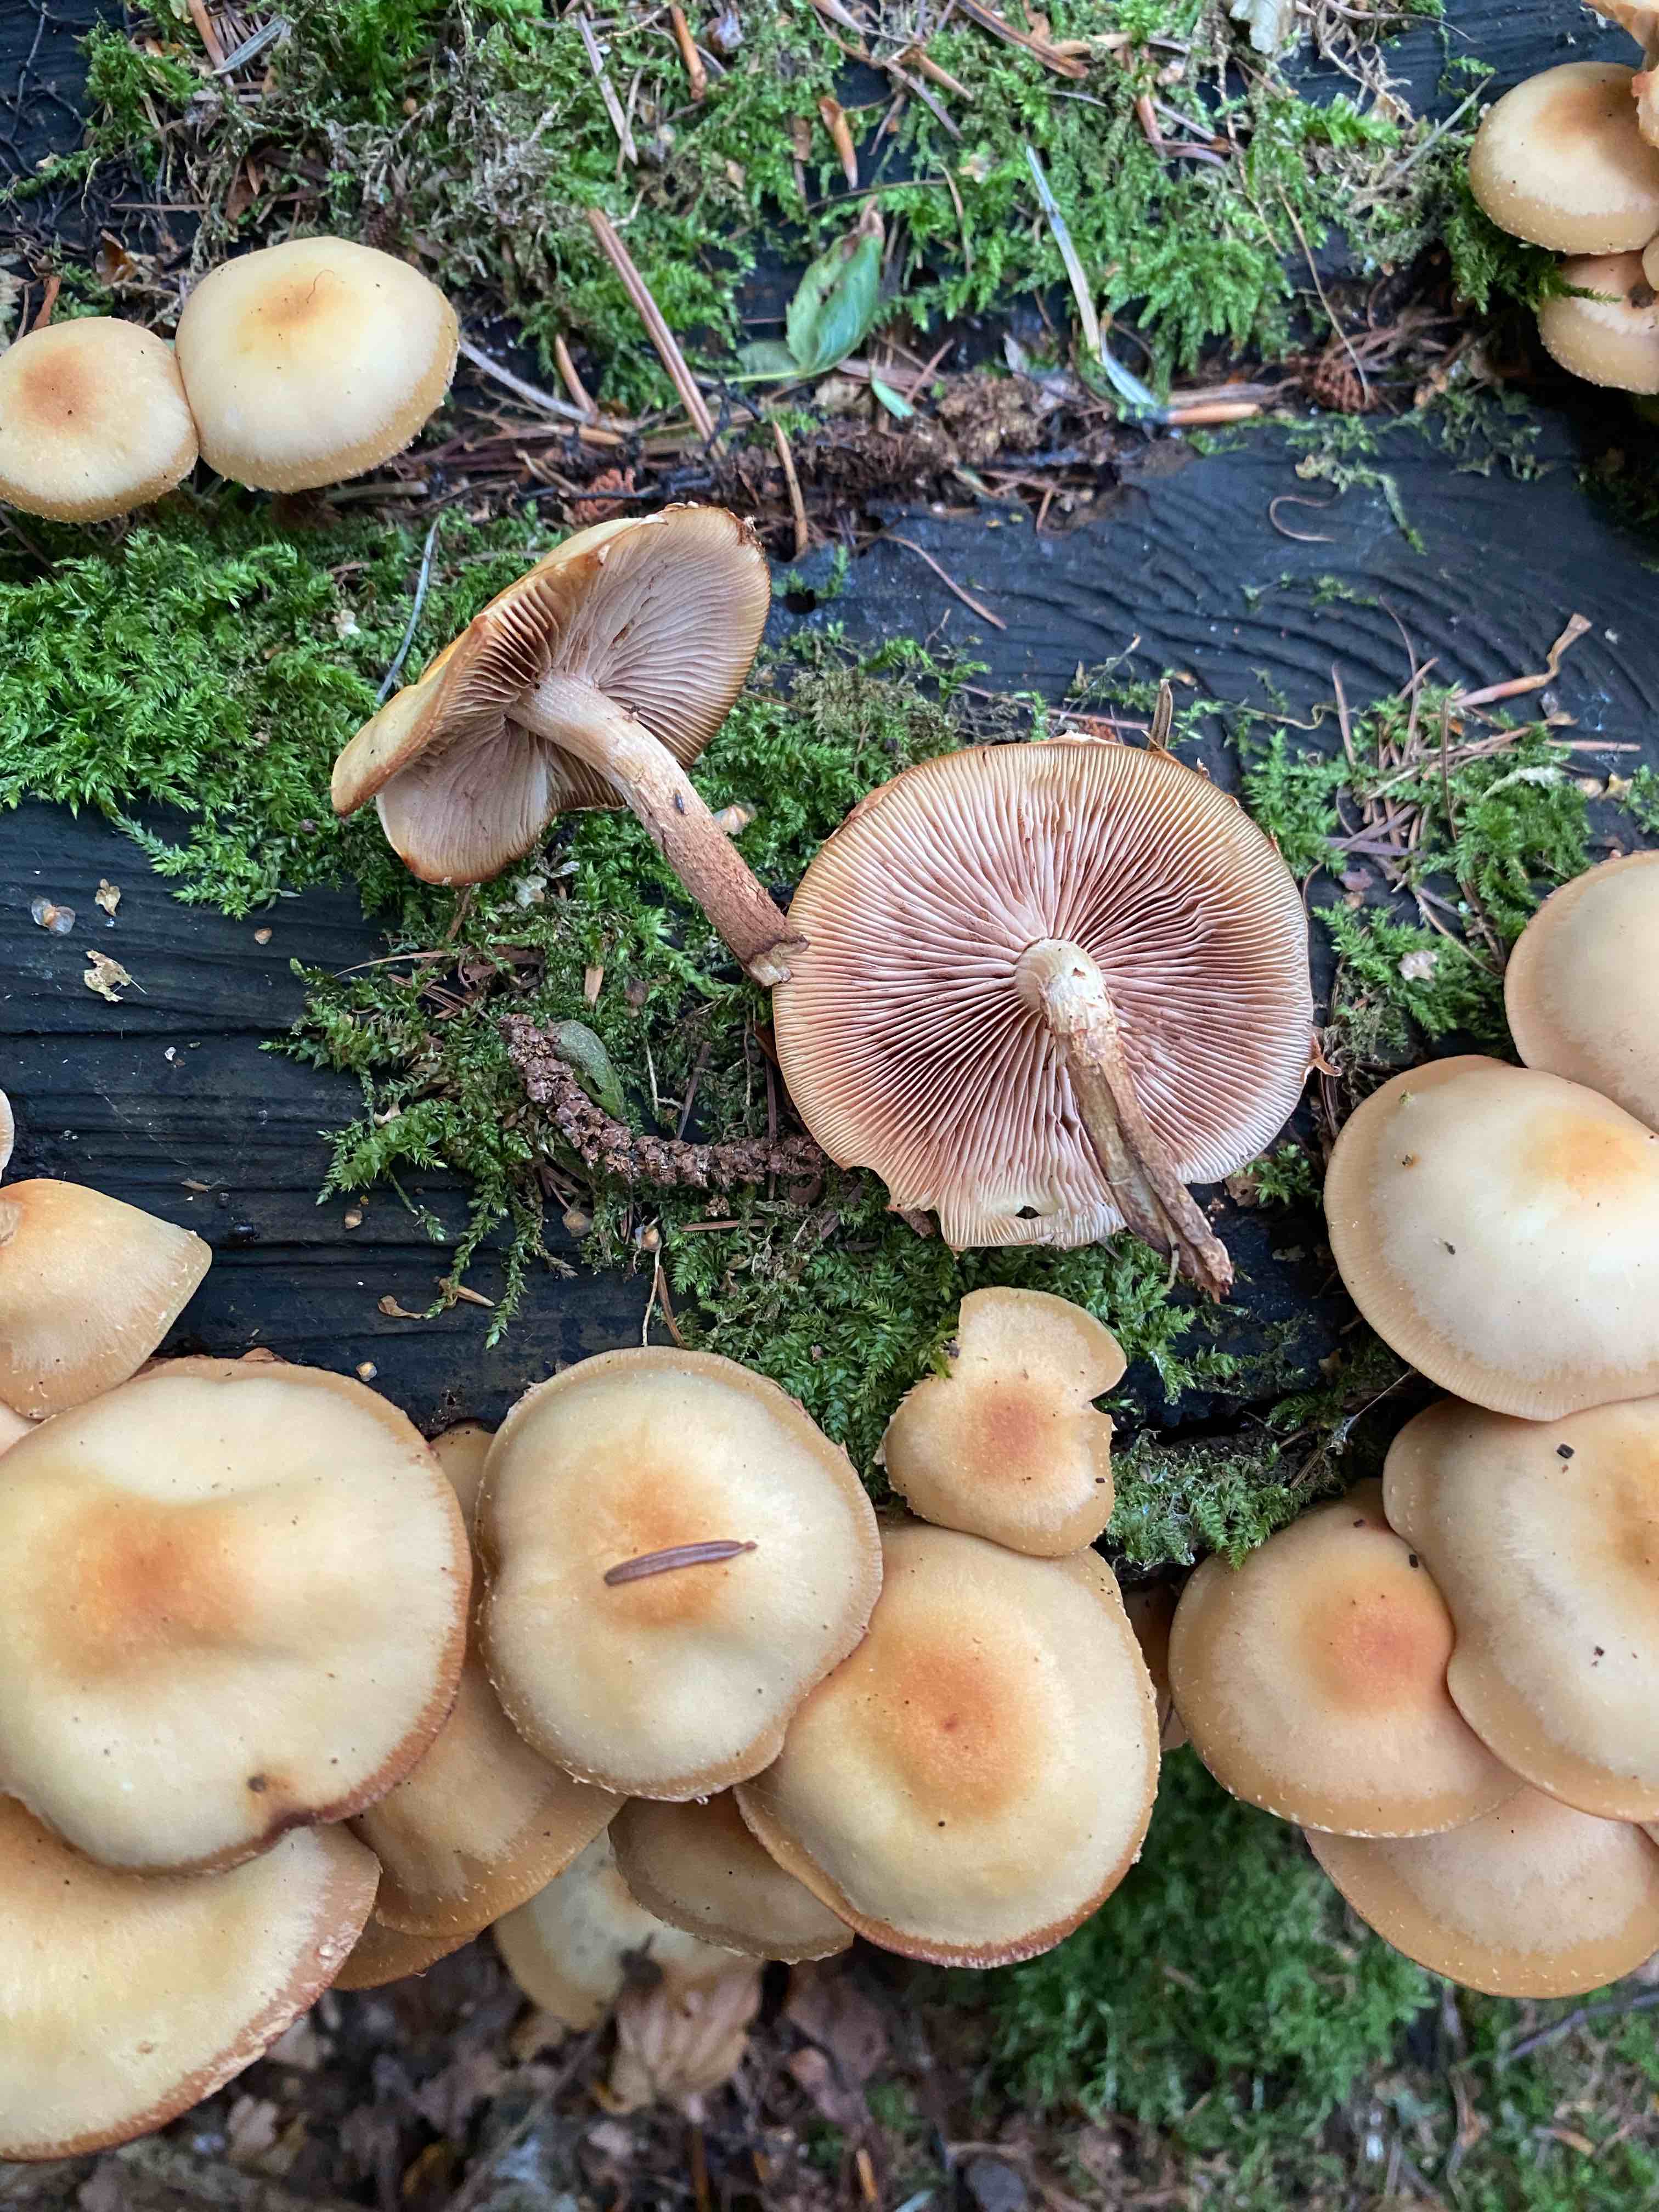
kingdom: Fungi
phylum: Basidiomycota
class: Agaricomycetes
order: Agaricales
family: Strophariaceae
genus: Kuehneromyces
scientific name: Kuehneromyces mutabilis
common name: foranderlig skælhat
